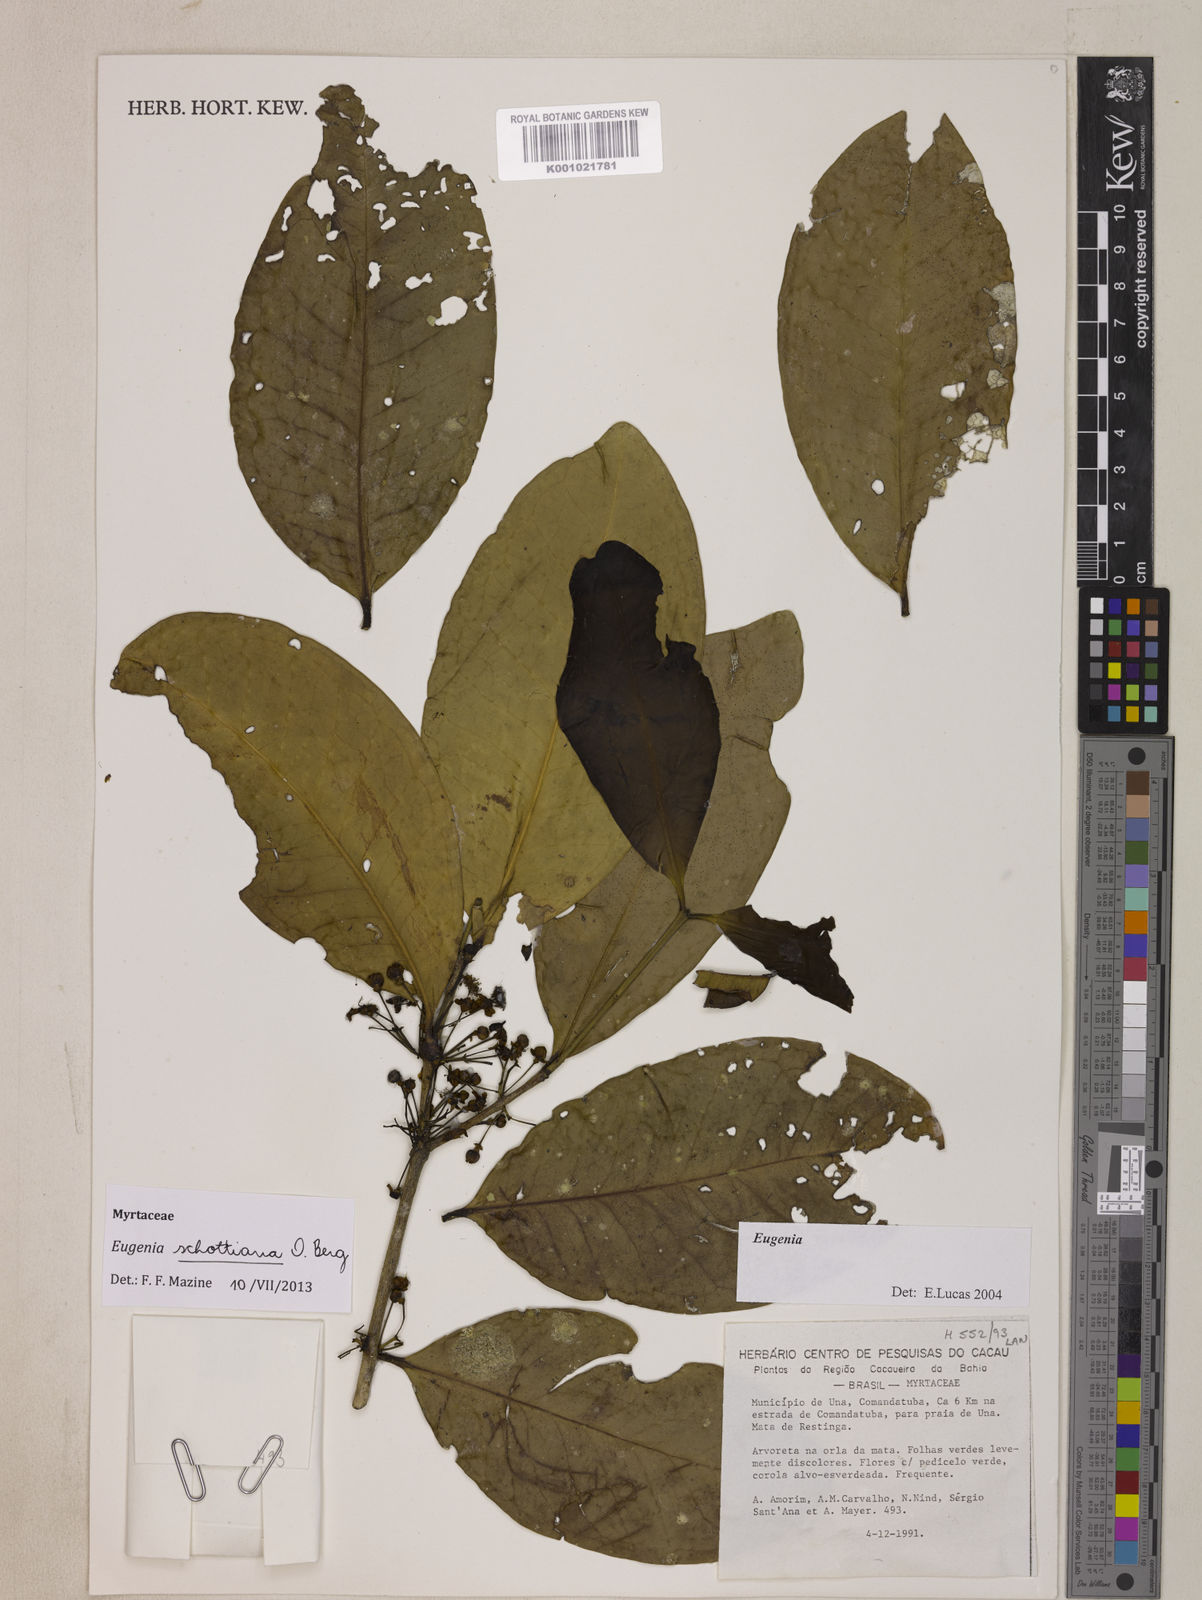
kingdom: Plantae
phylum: Tracheophyta
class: Magnoliopsida
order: Myrtales
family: Myrtaceae
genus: Eugenia
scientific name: Eugenia schottiana
